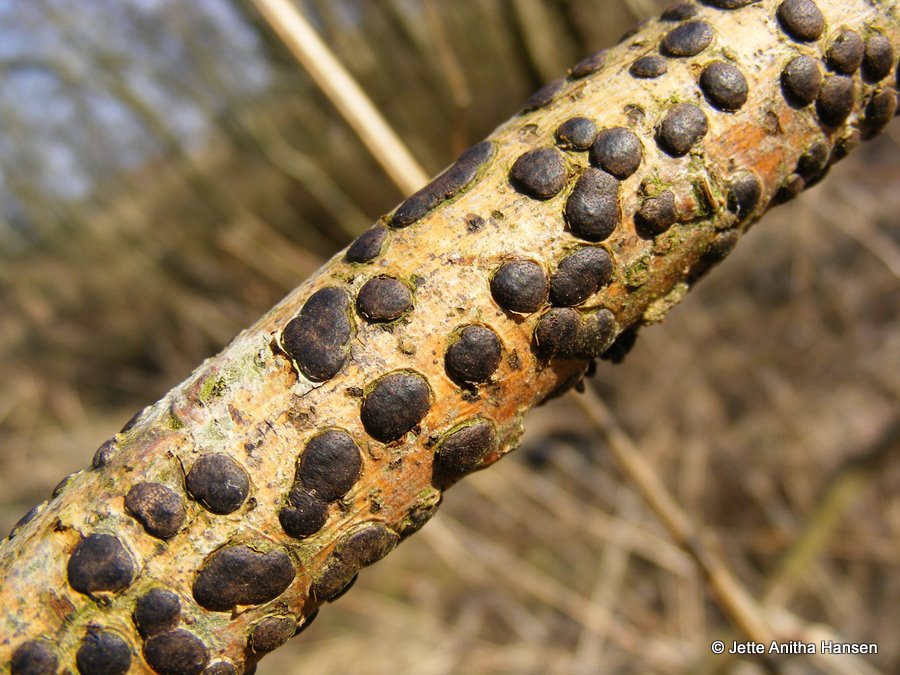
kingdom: Fungi
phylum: Ascomycota
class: Sordariomycetes
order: Xylariales
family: Diatrypaceae
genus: Diatrype
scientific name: Diatrype bullata
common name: pile-kulskorpe
